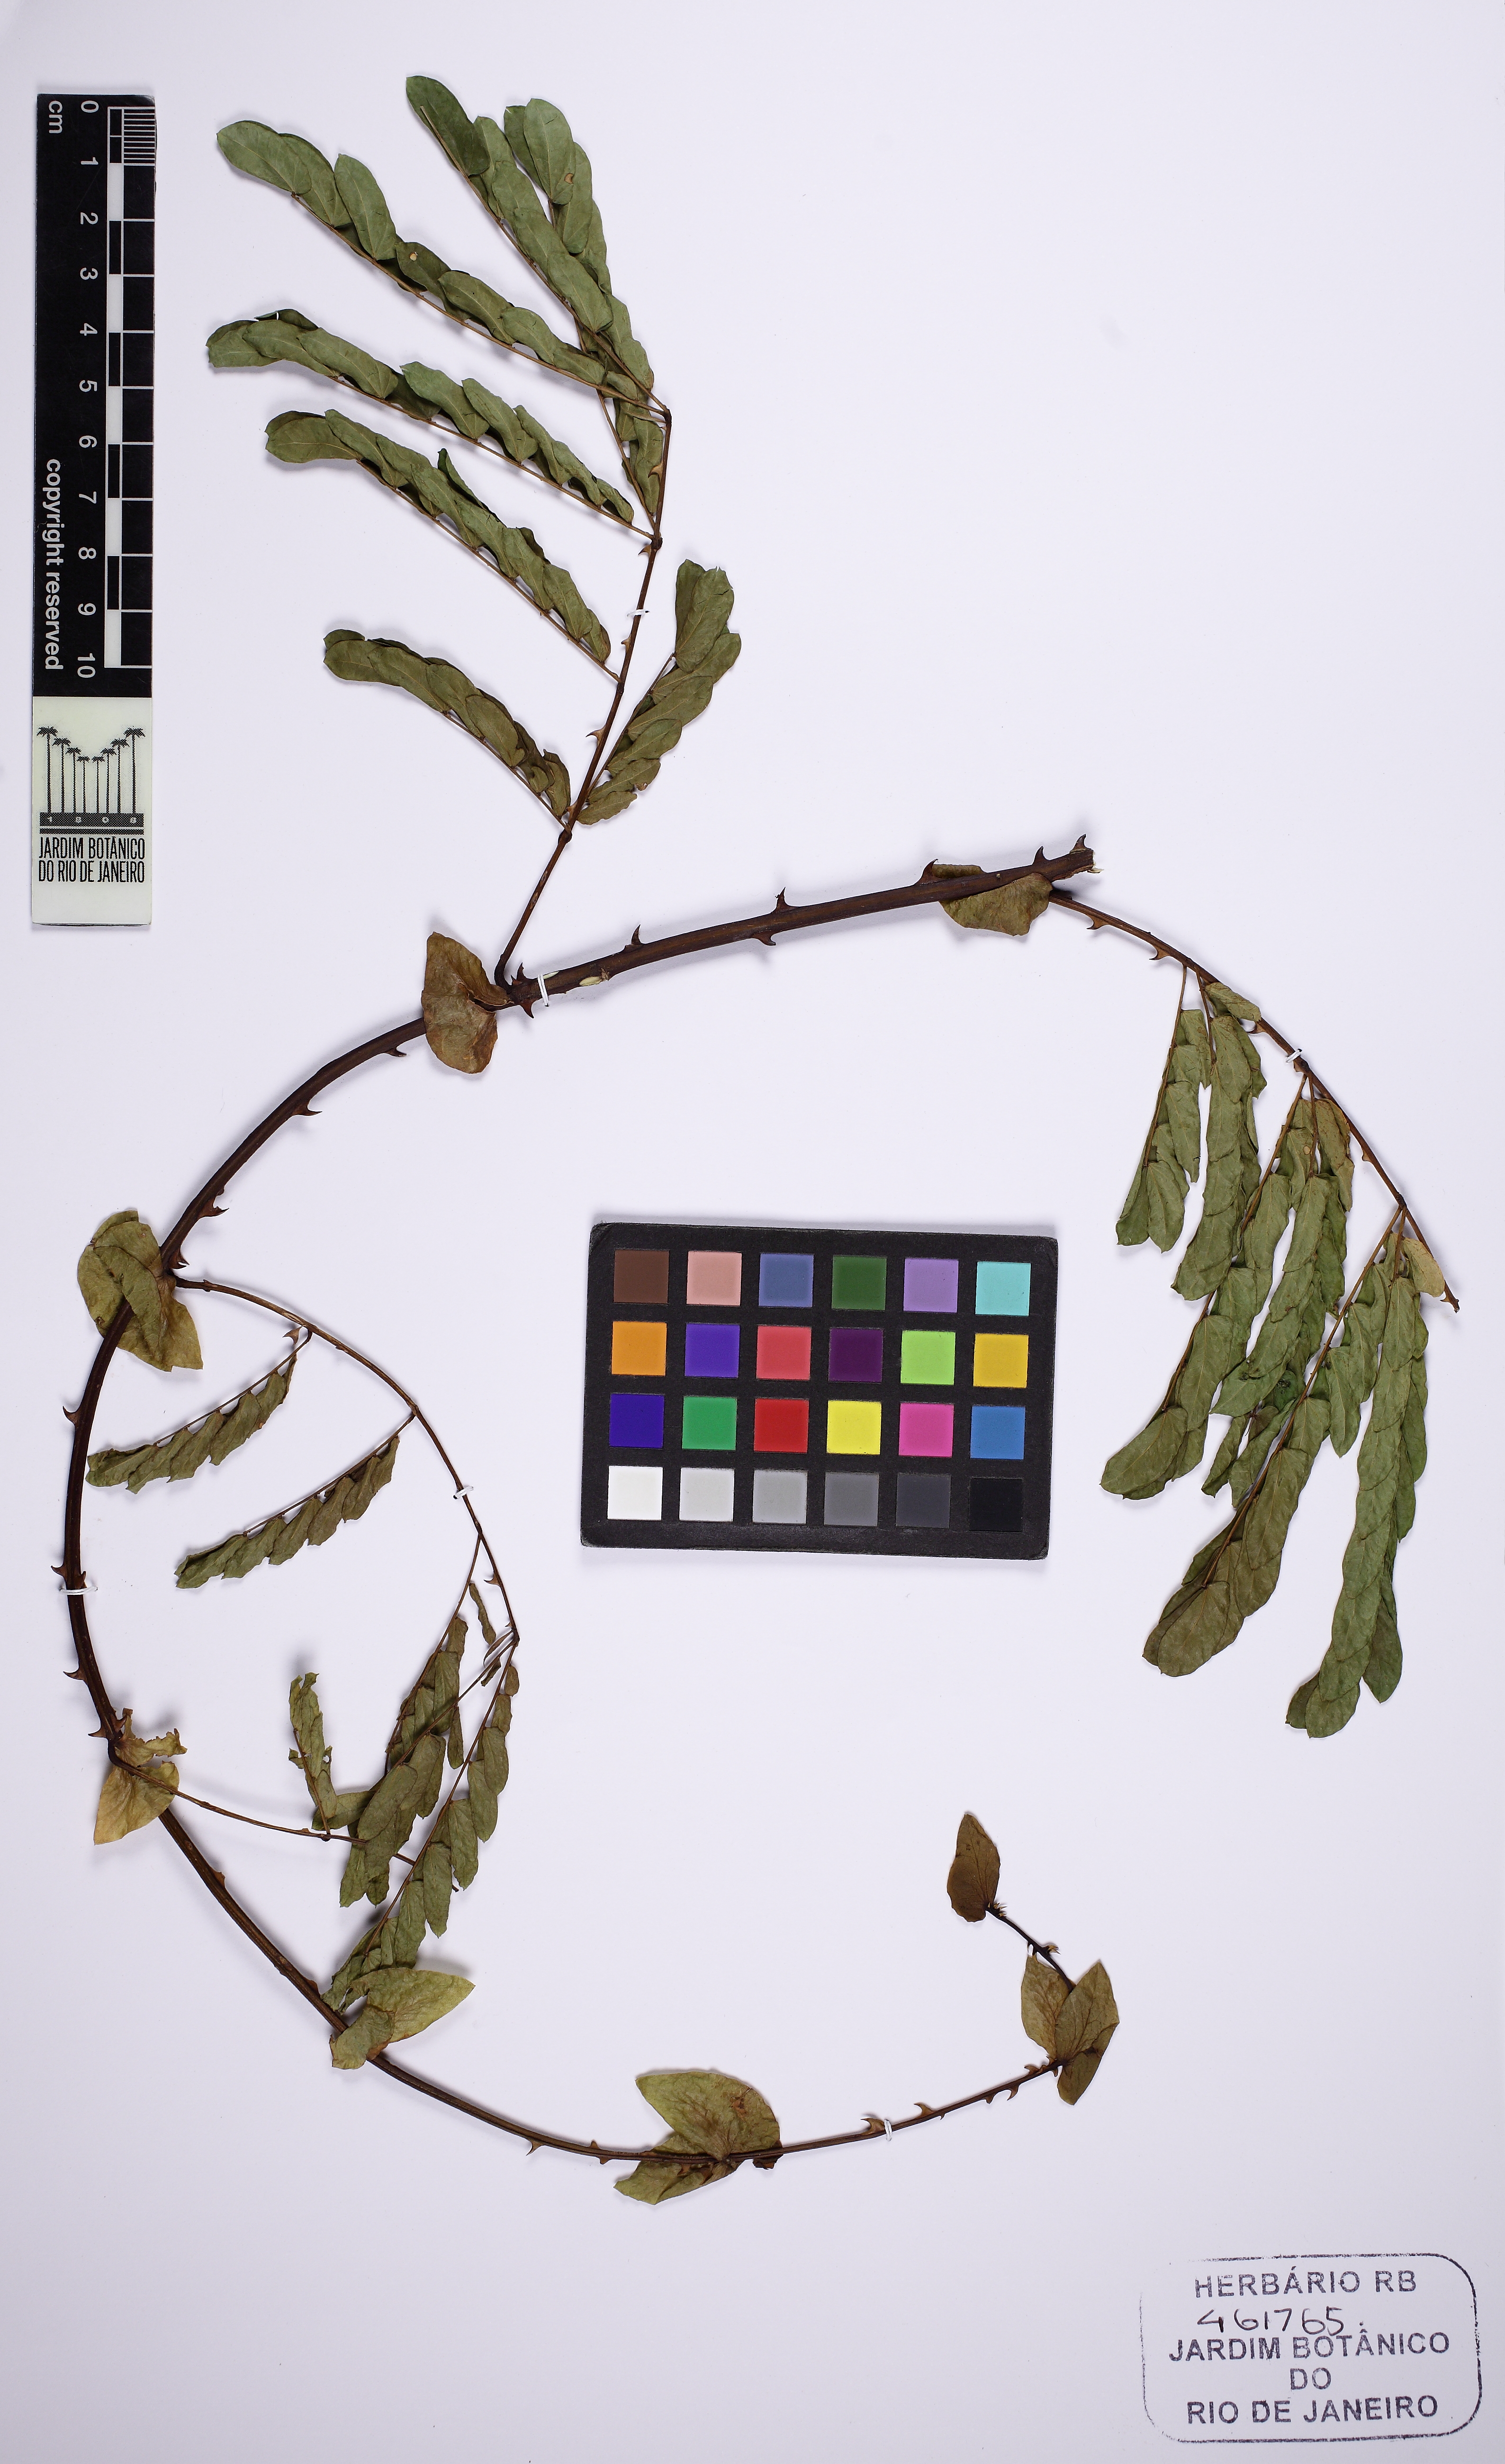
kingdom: Plantae
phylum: Tracheophyta
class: Magnoliopsida
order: Fabales
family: Fabaceae
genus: Senegalia
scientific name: Senegalia grandistipula
